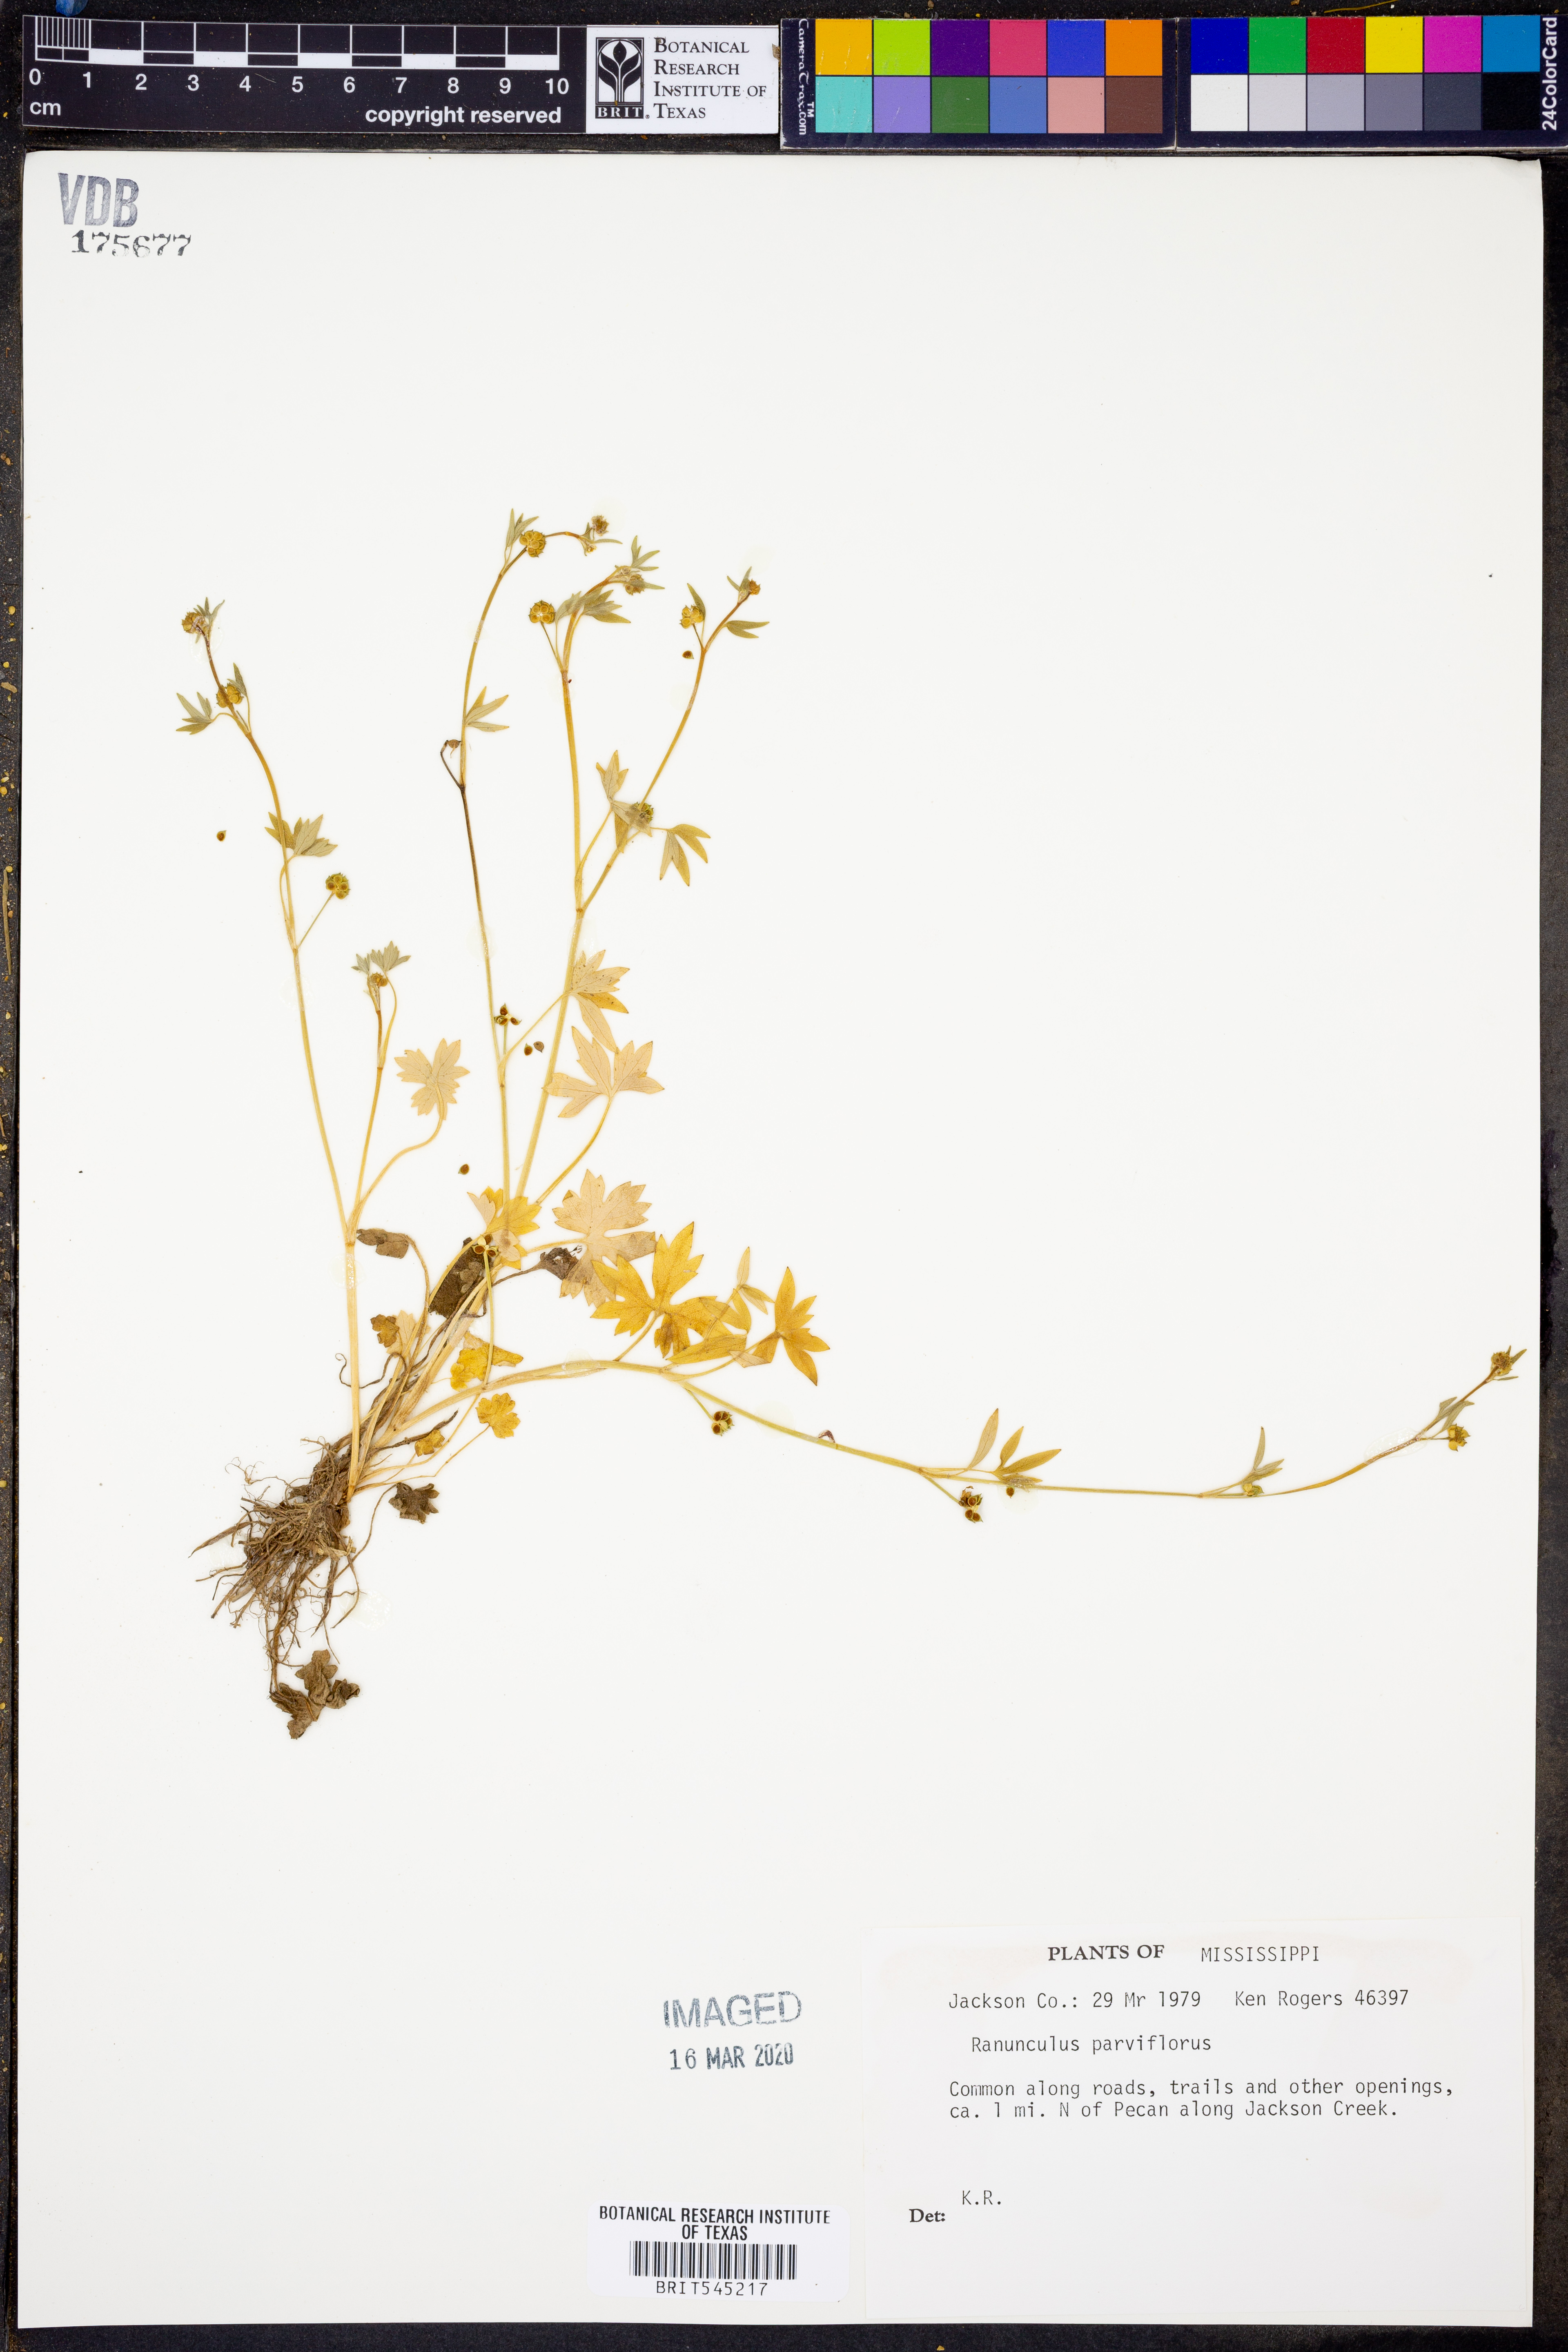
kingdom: Plantae
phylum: Tracheophyta
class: Magnoliopsida
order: Ranunculales
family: Ranunculaceae
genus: Ranunculus
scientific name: Ranunculus parviflorus
